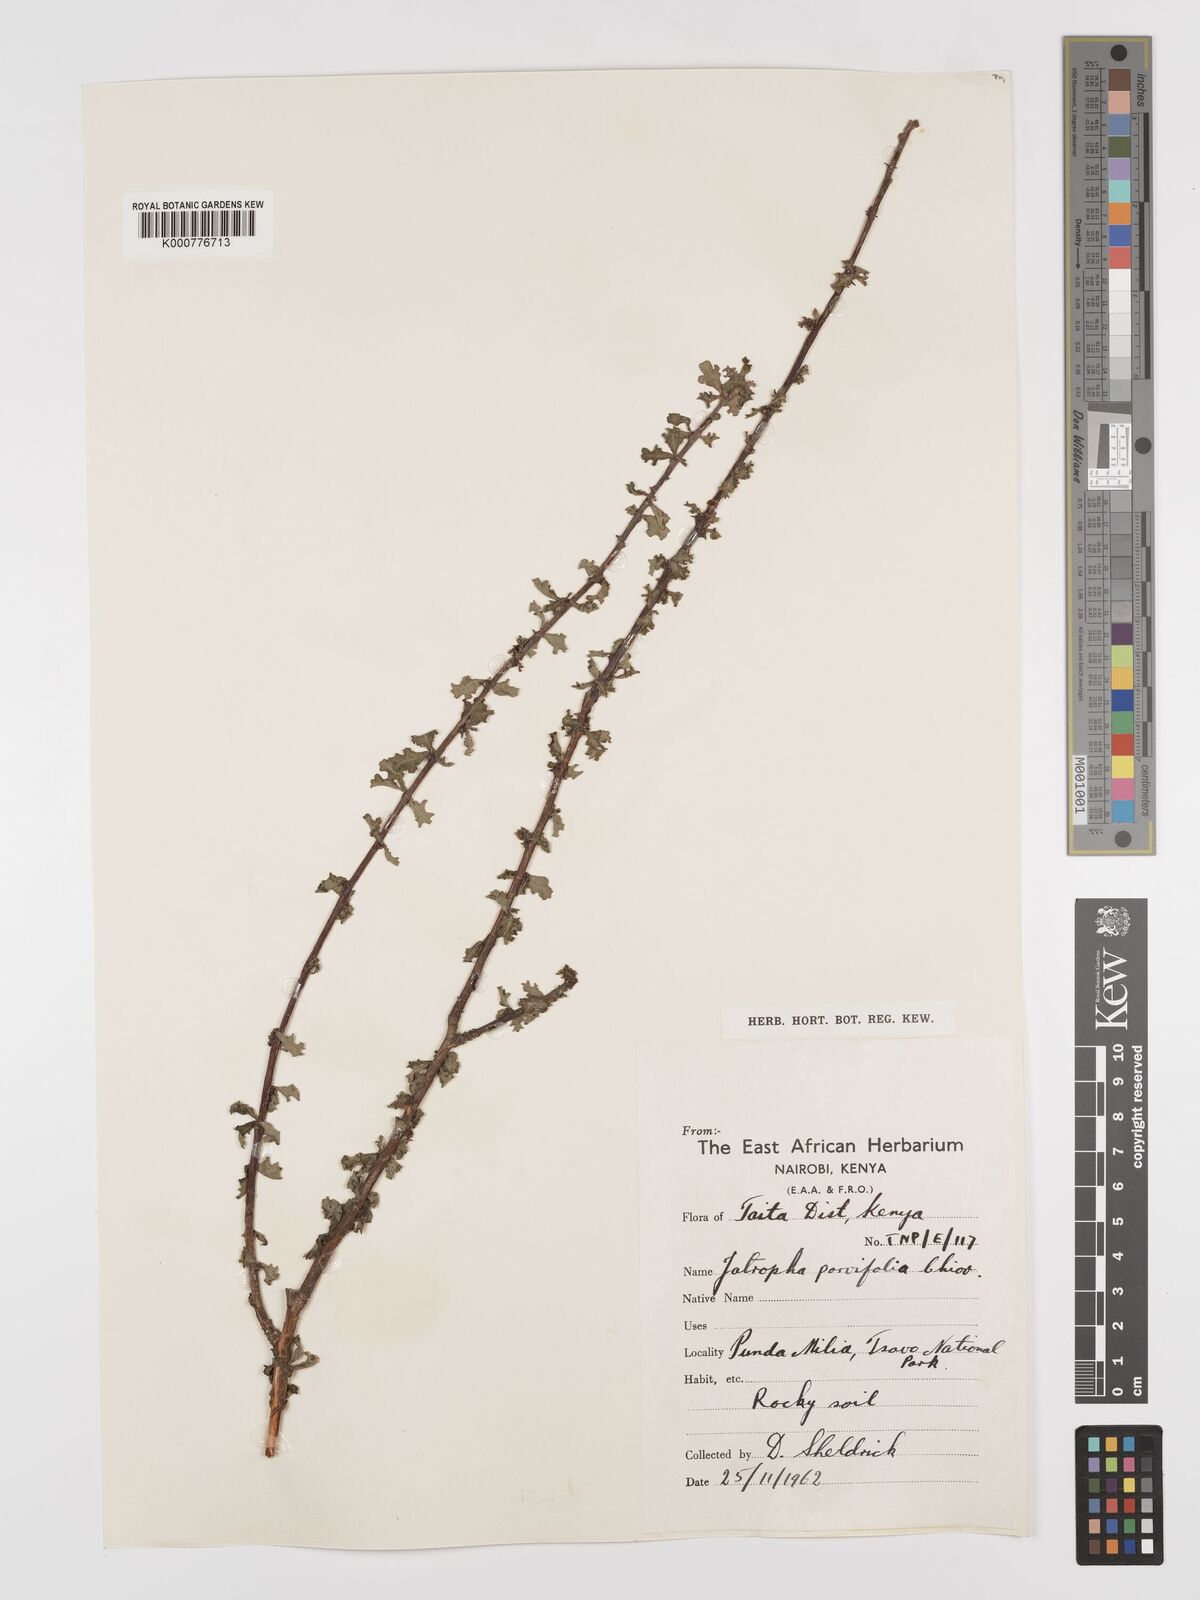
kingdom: Plantae
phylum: Tracheophyta
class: Magnoliopsida
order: Malpighiales
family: Euphorbiaceae
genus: Jatropha
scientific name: Jatropha rivae
